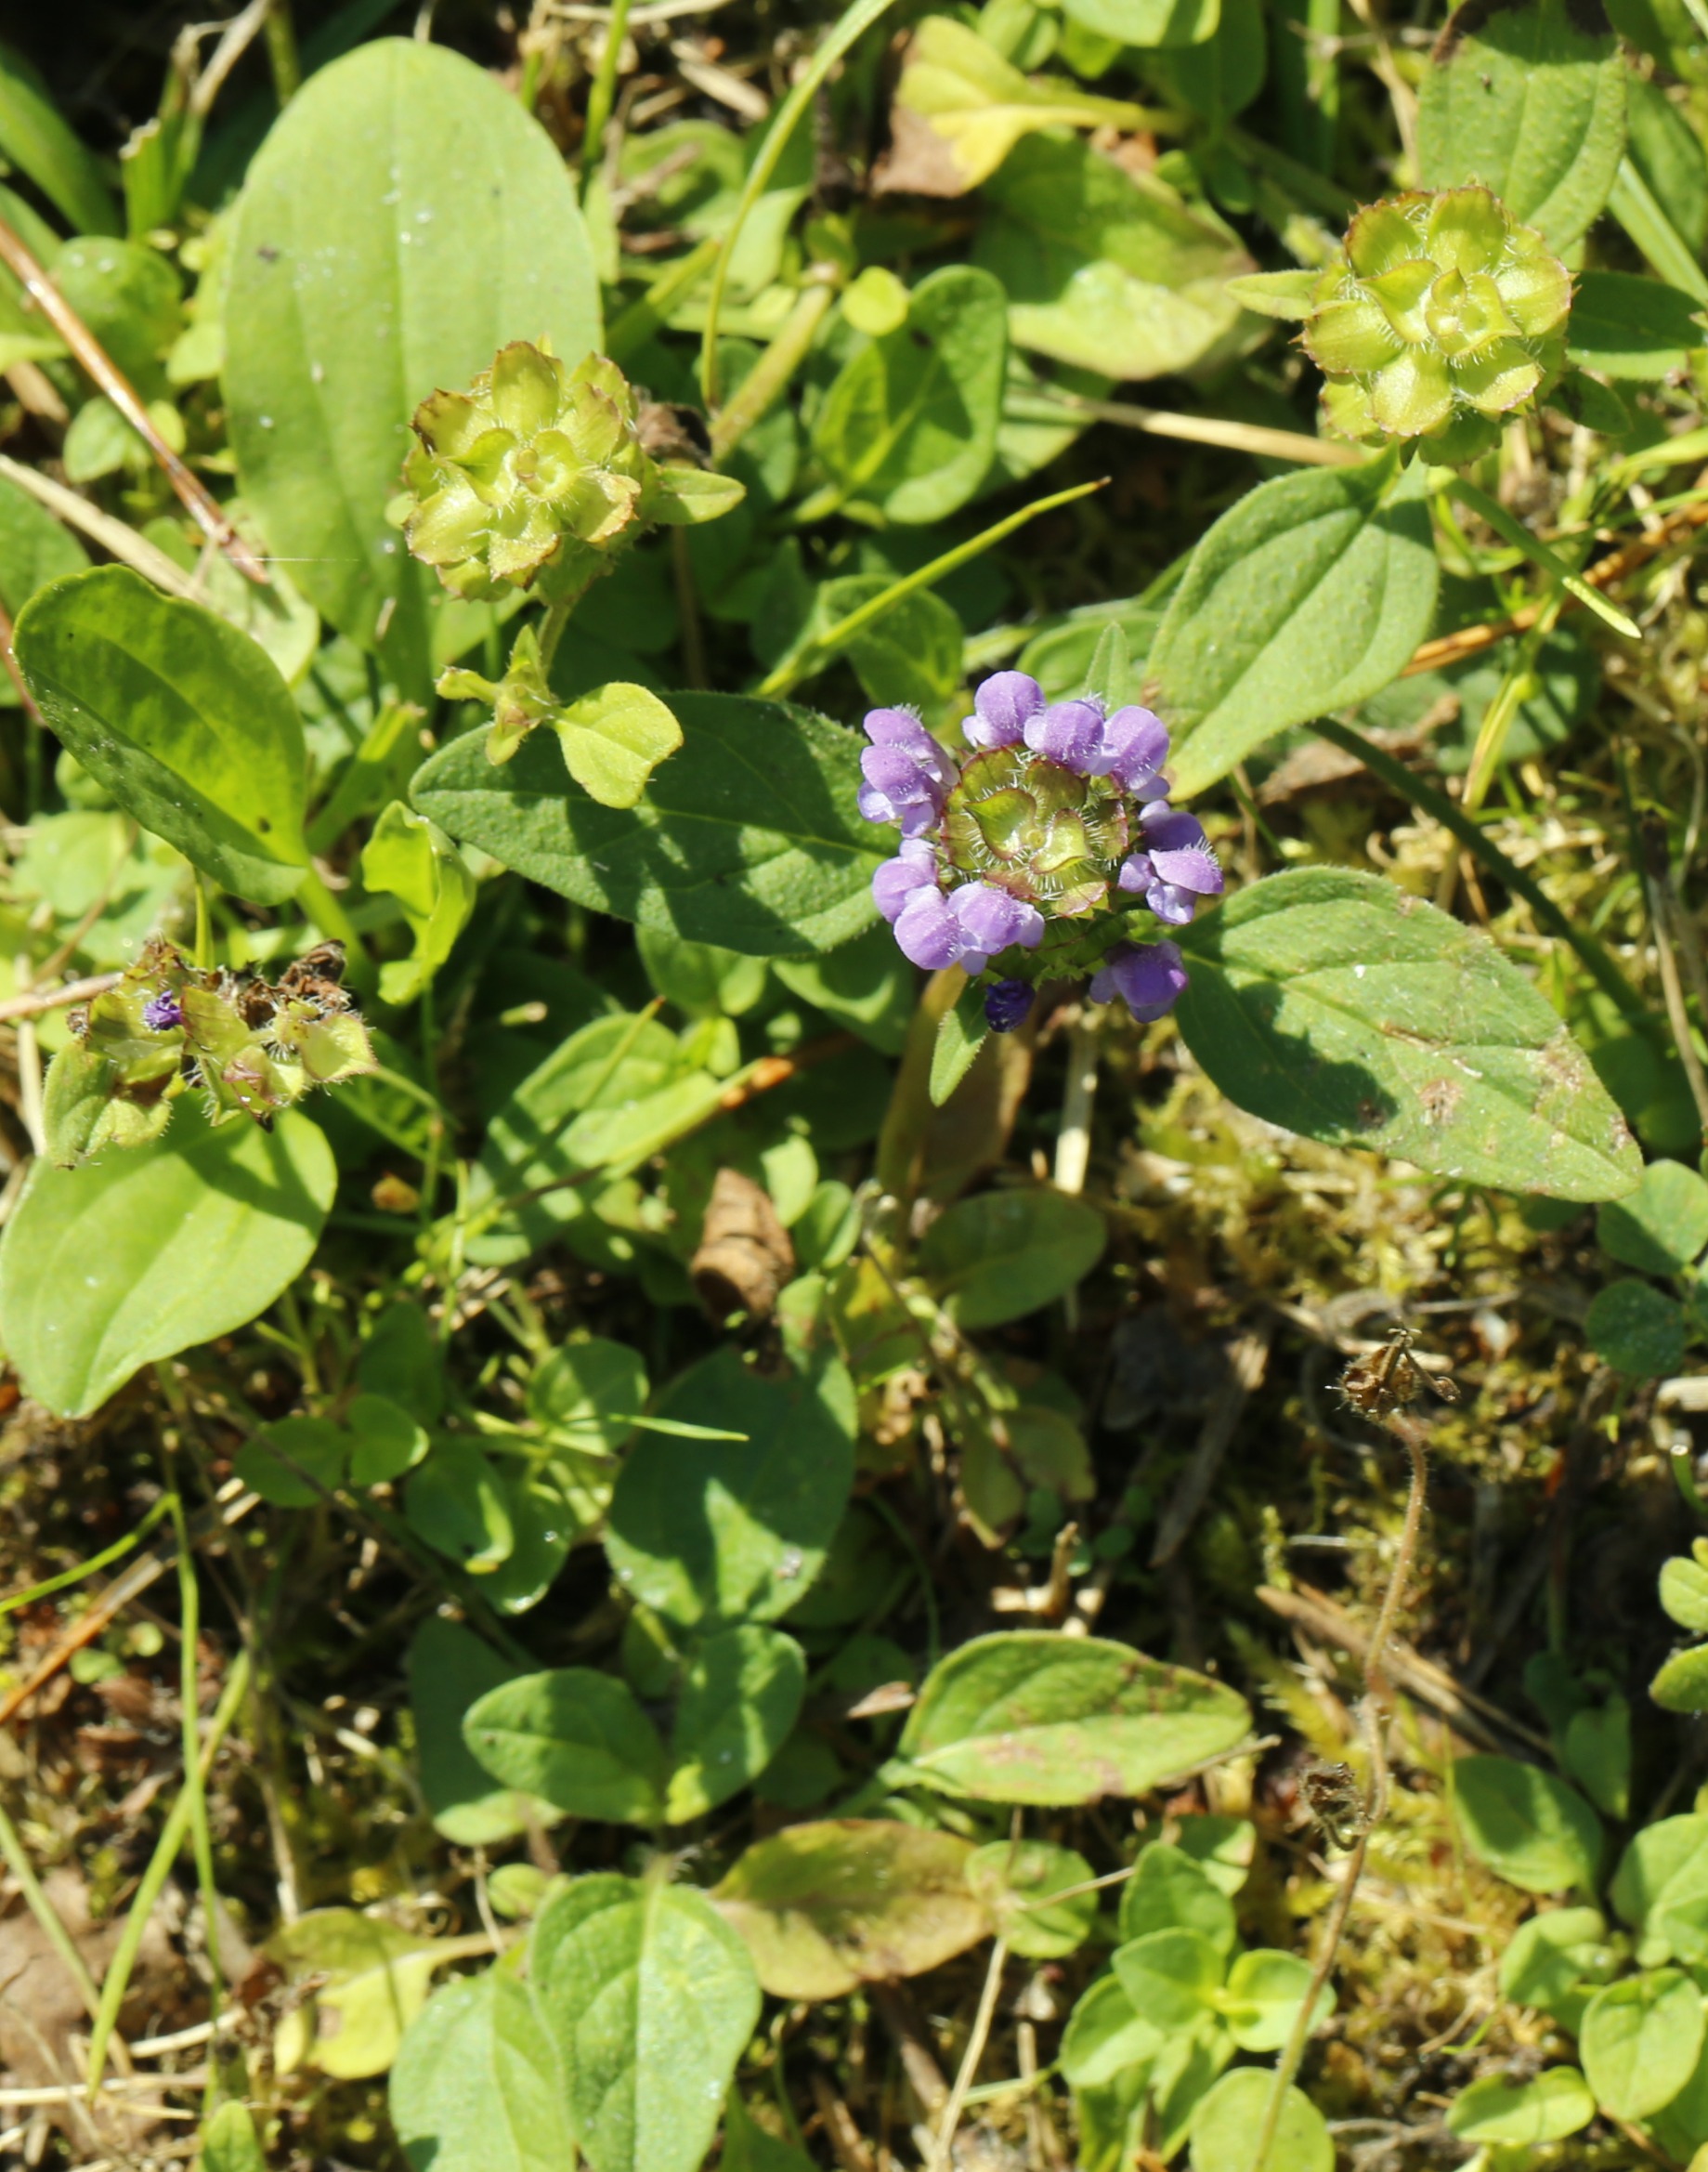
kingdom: Plantae
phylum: Tracheophyta
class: Magnoliopsida
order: Lamiales
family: Lamiaceae
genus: Prunella
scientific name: Prunella vulgaris
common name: Almindelig brunelle
